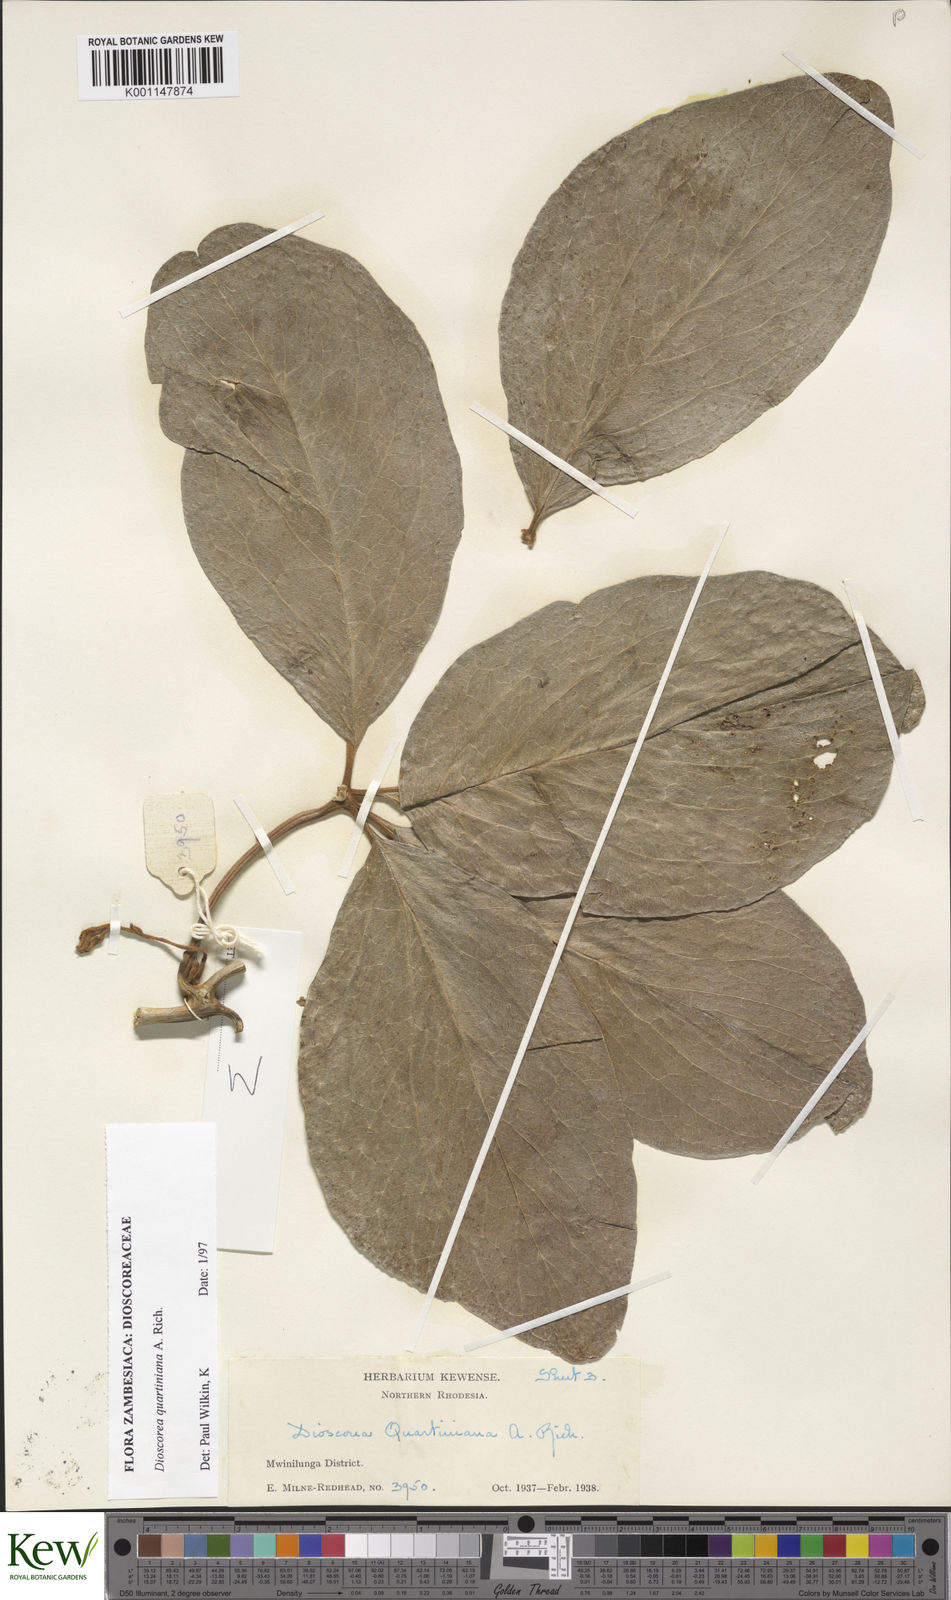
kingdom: Plantae
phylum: Tracheophyta
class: Liliopsida
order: Dioscoreales
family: Dioscoreaceae
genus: Dioscorea
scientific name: Dioscorea quartiniana
